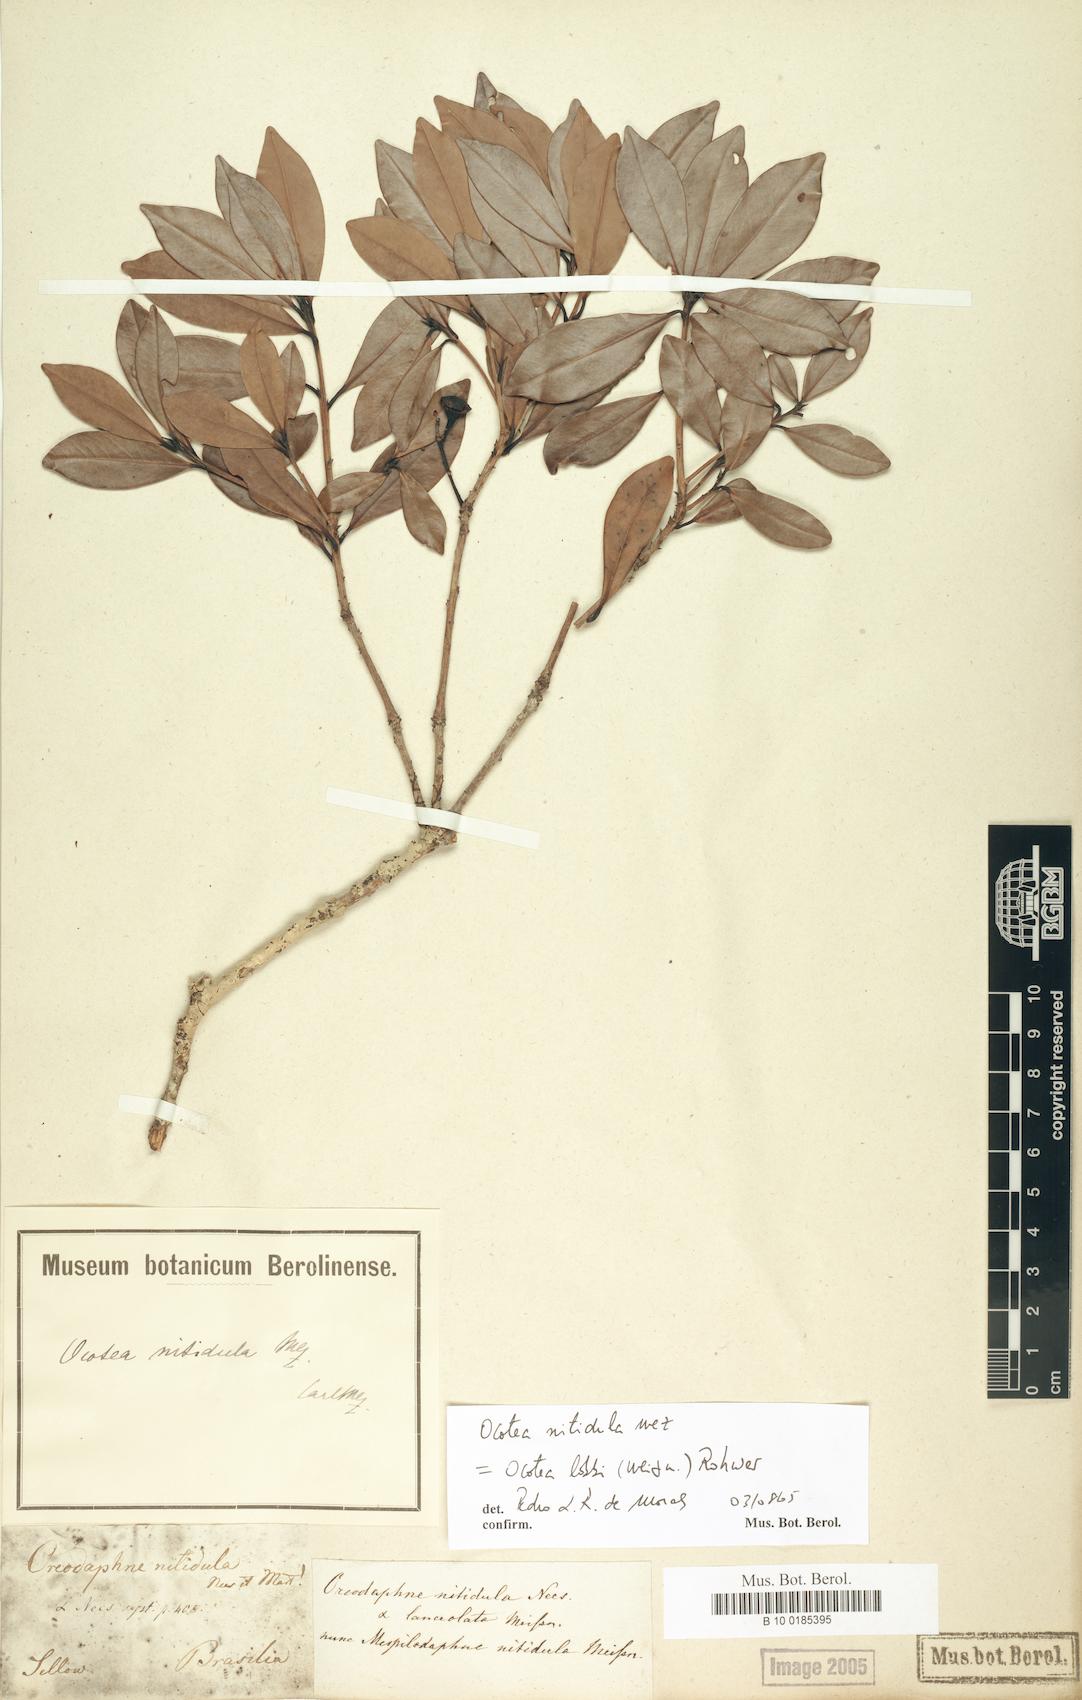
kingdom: Plantae
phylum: Tracheophyta
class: Magnoliopsida
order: Laurales
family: Lauraceae
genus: Nectandra
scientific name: Nectandra nitidula
